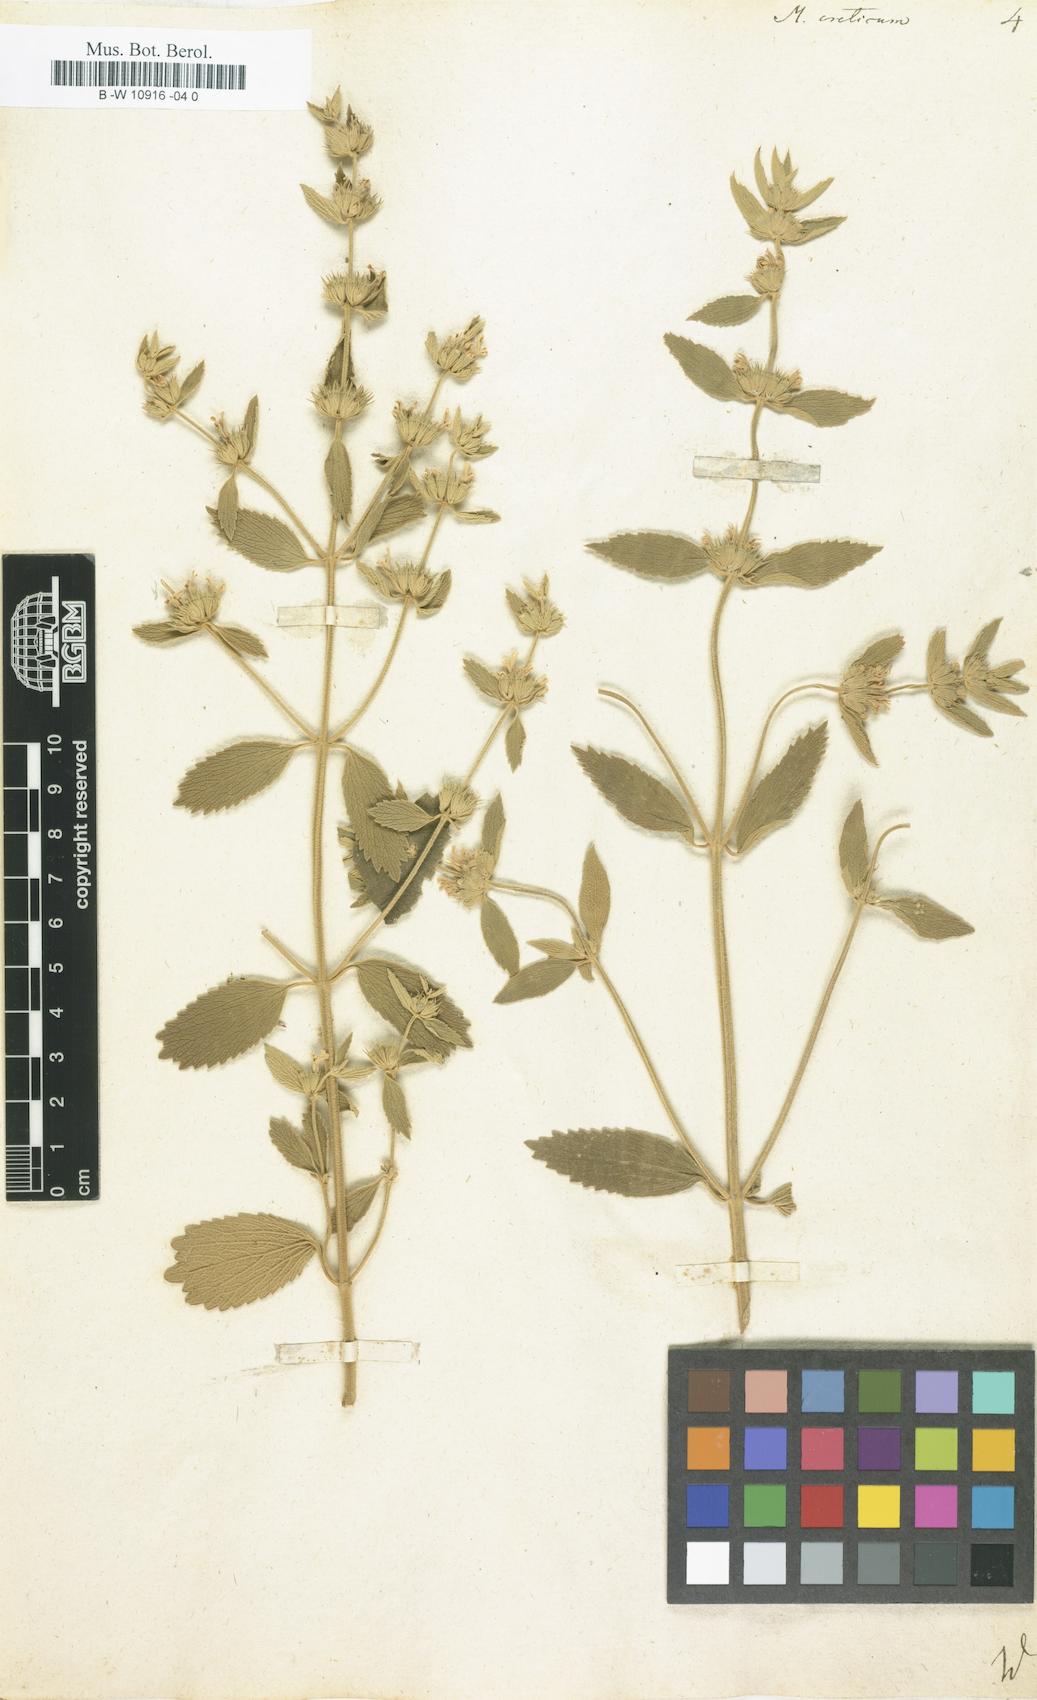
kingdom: Plantae
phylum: Tracheophyta
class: Magnoliopsida
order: Lamiales
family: Lamiaceae
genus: Marrubium
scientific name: Marrubium peregrinum
